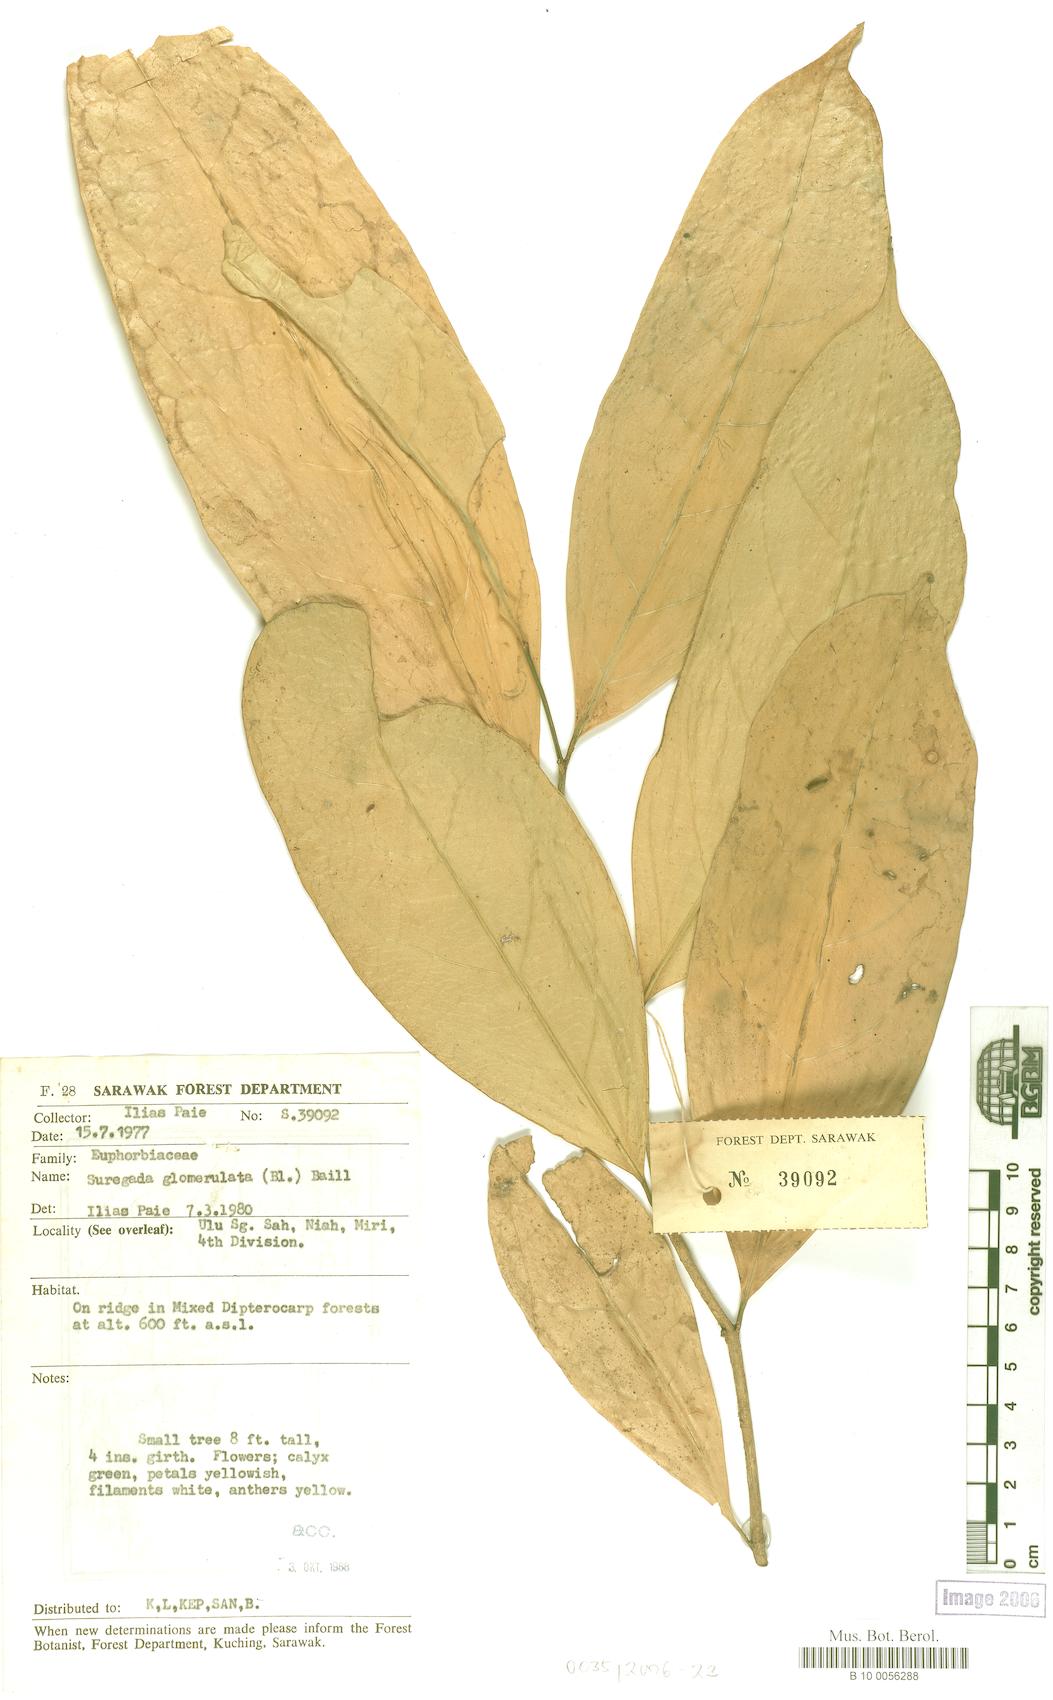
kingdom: Plantae
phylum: Tracheophyta
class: Magnoliopsida
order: Malpighiales
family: Euphorbiaceae
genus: Suregada
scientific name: Suregada glomerulata
